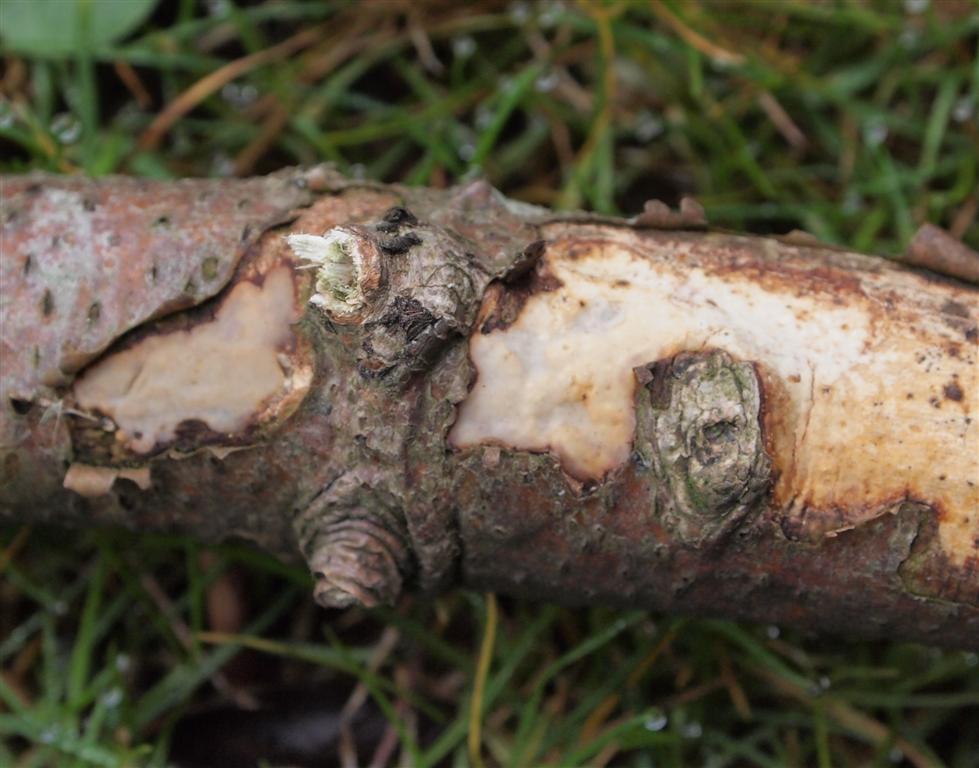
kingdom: Fungi
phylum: Basidiomycota
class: Agaricomycetes
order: Corticiales
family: Vuilleminiaceae
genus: Vuilleminia
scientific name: Vuilleminia comedens
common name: almindelig barksprænger
